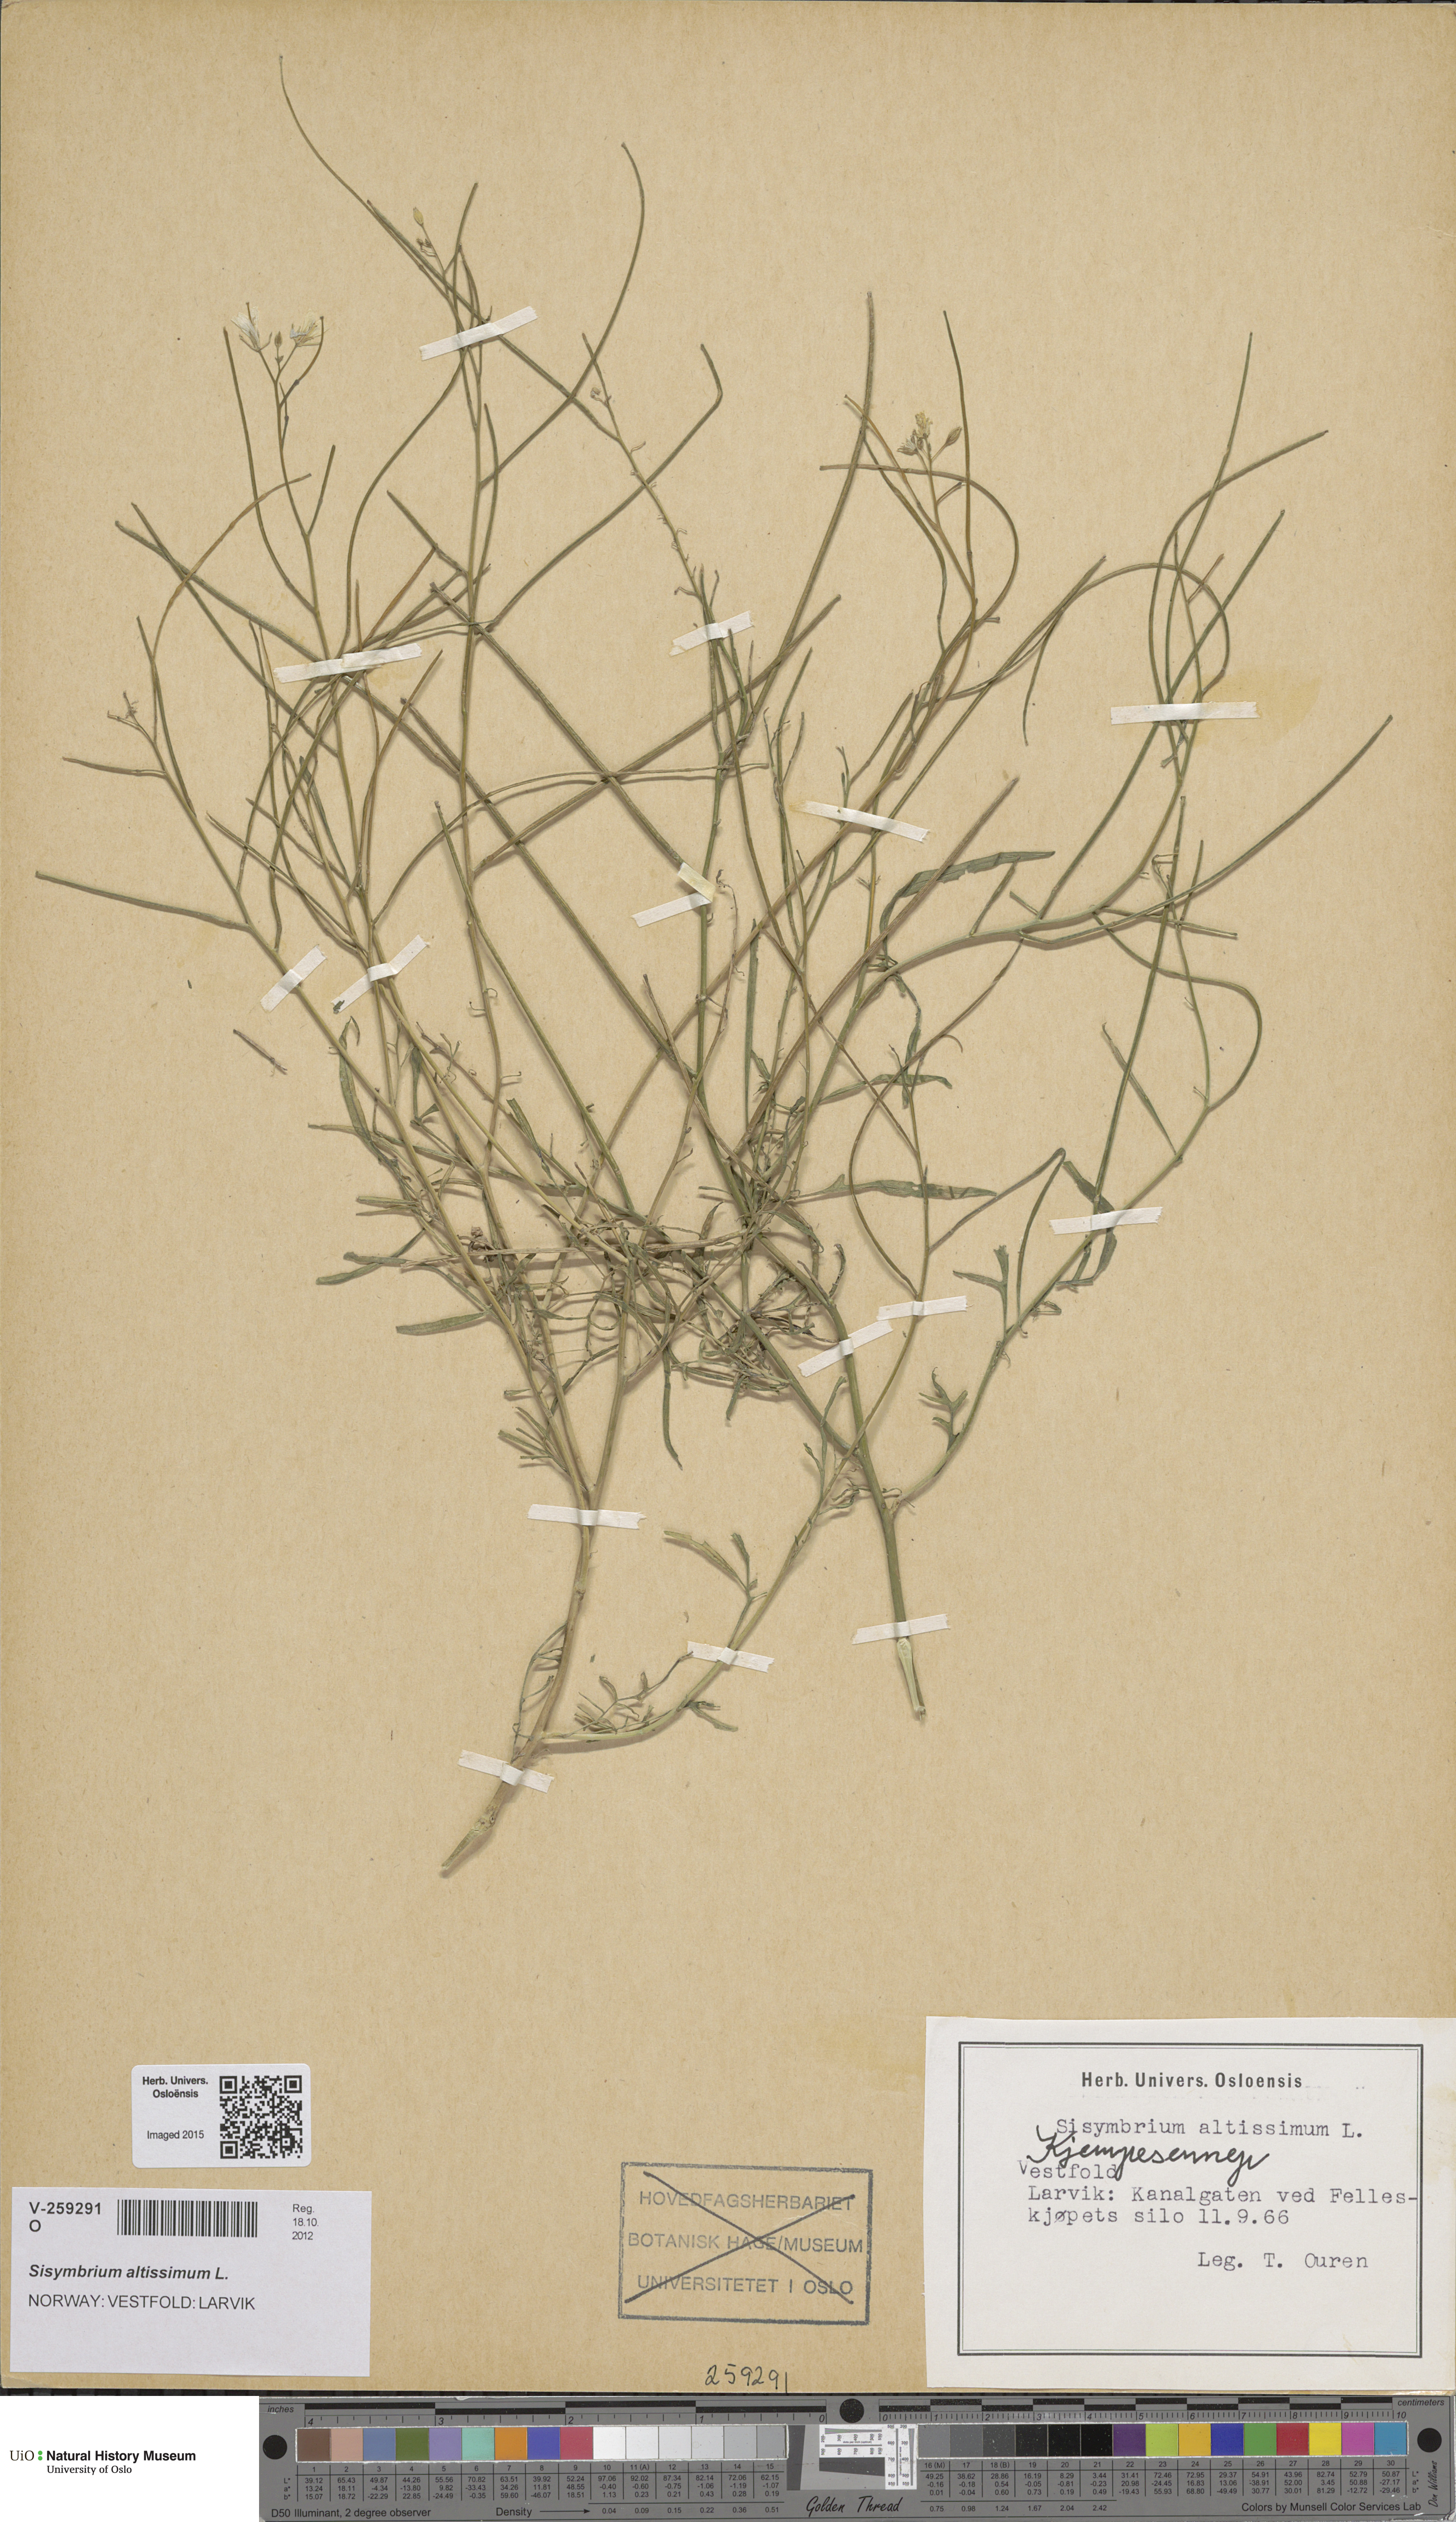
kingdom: Plantae
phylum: Tracheophyta
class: Magnoliopsida
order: Brassicales
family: Brassicaceae
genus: Sisymbrium
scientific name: Sisymbrium altissimum
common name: Tall rocket
